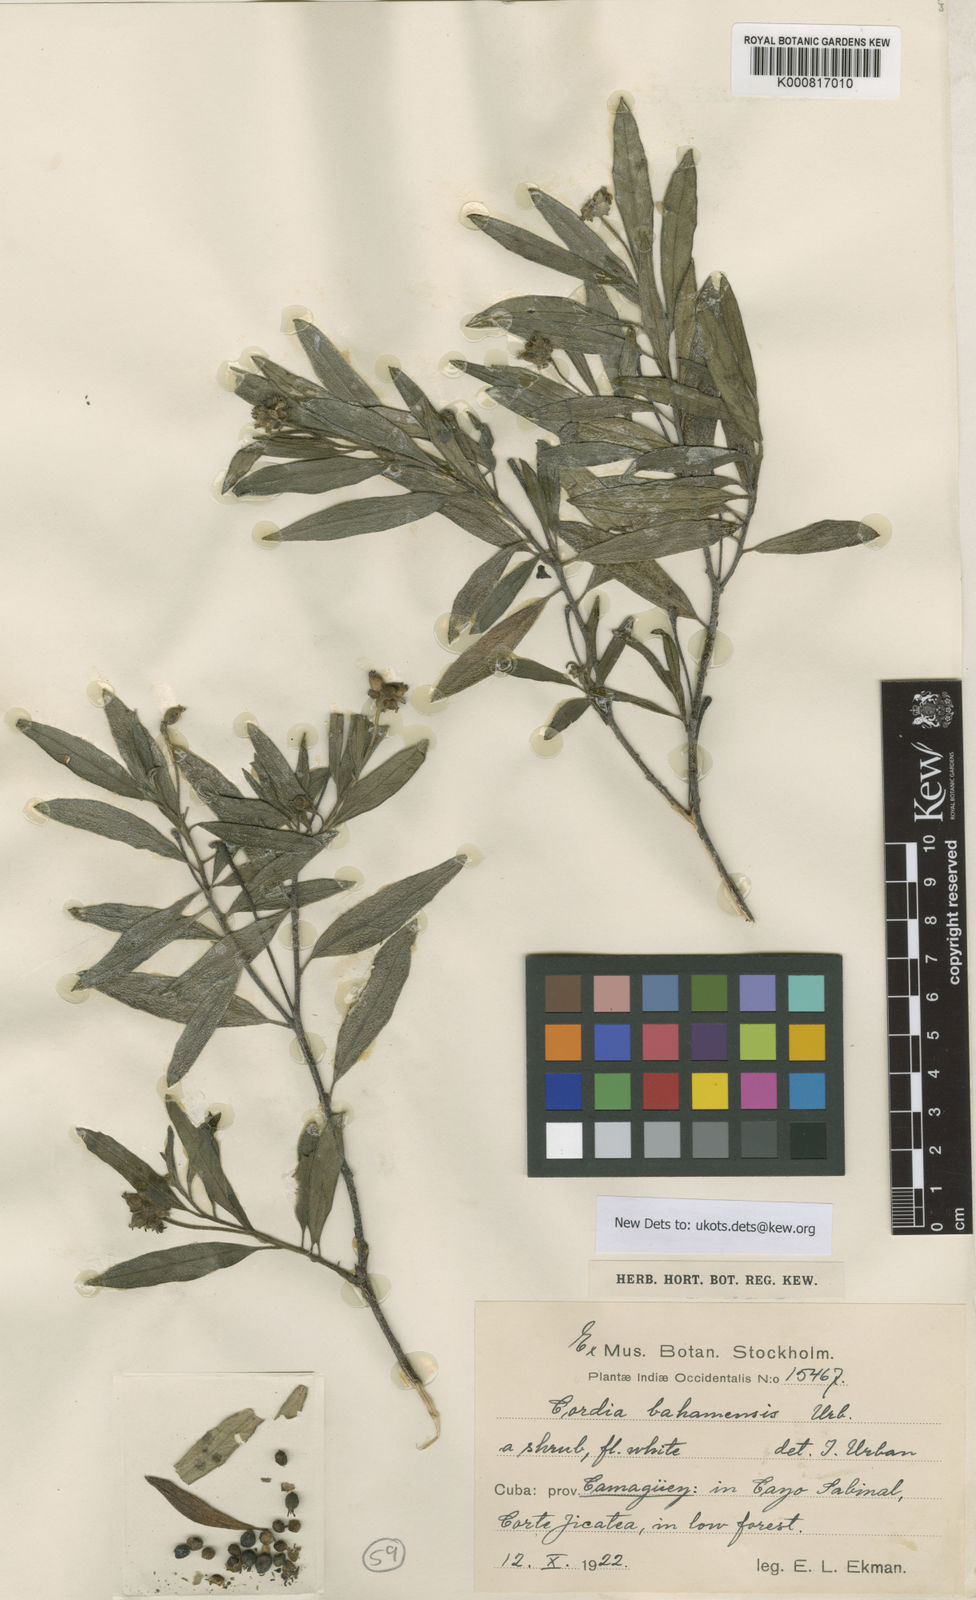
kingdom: Plantae
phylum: Tracheophyta
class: Magnoliopsida
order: Boraginales
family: Cordiaceae
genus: Varronia
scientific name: Varronia bahamensis
